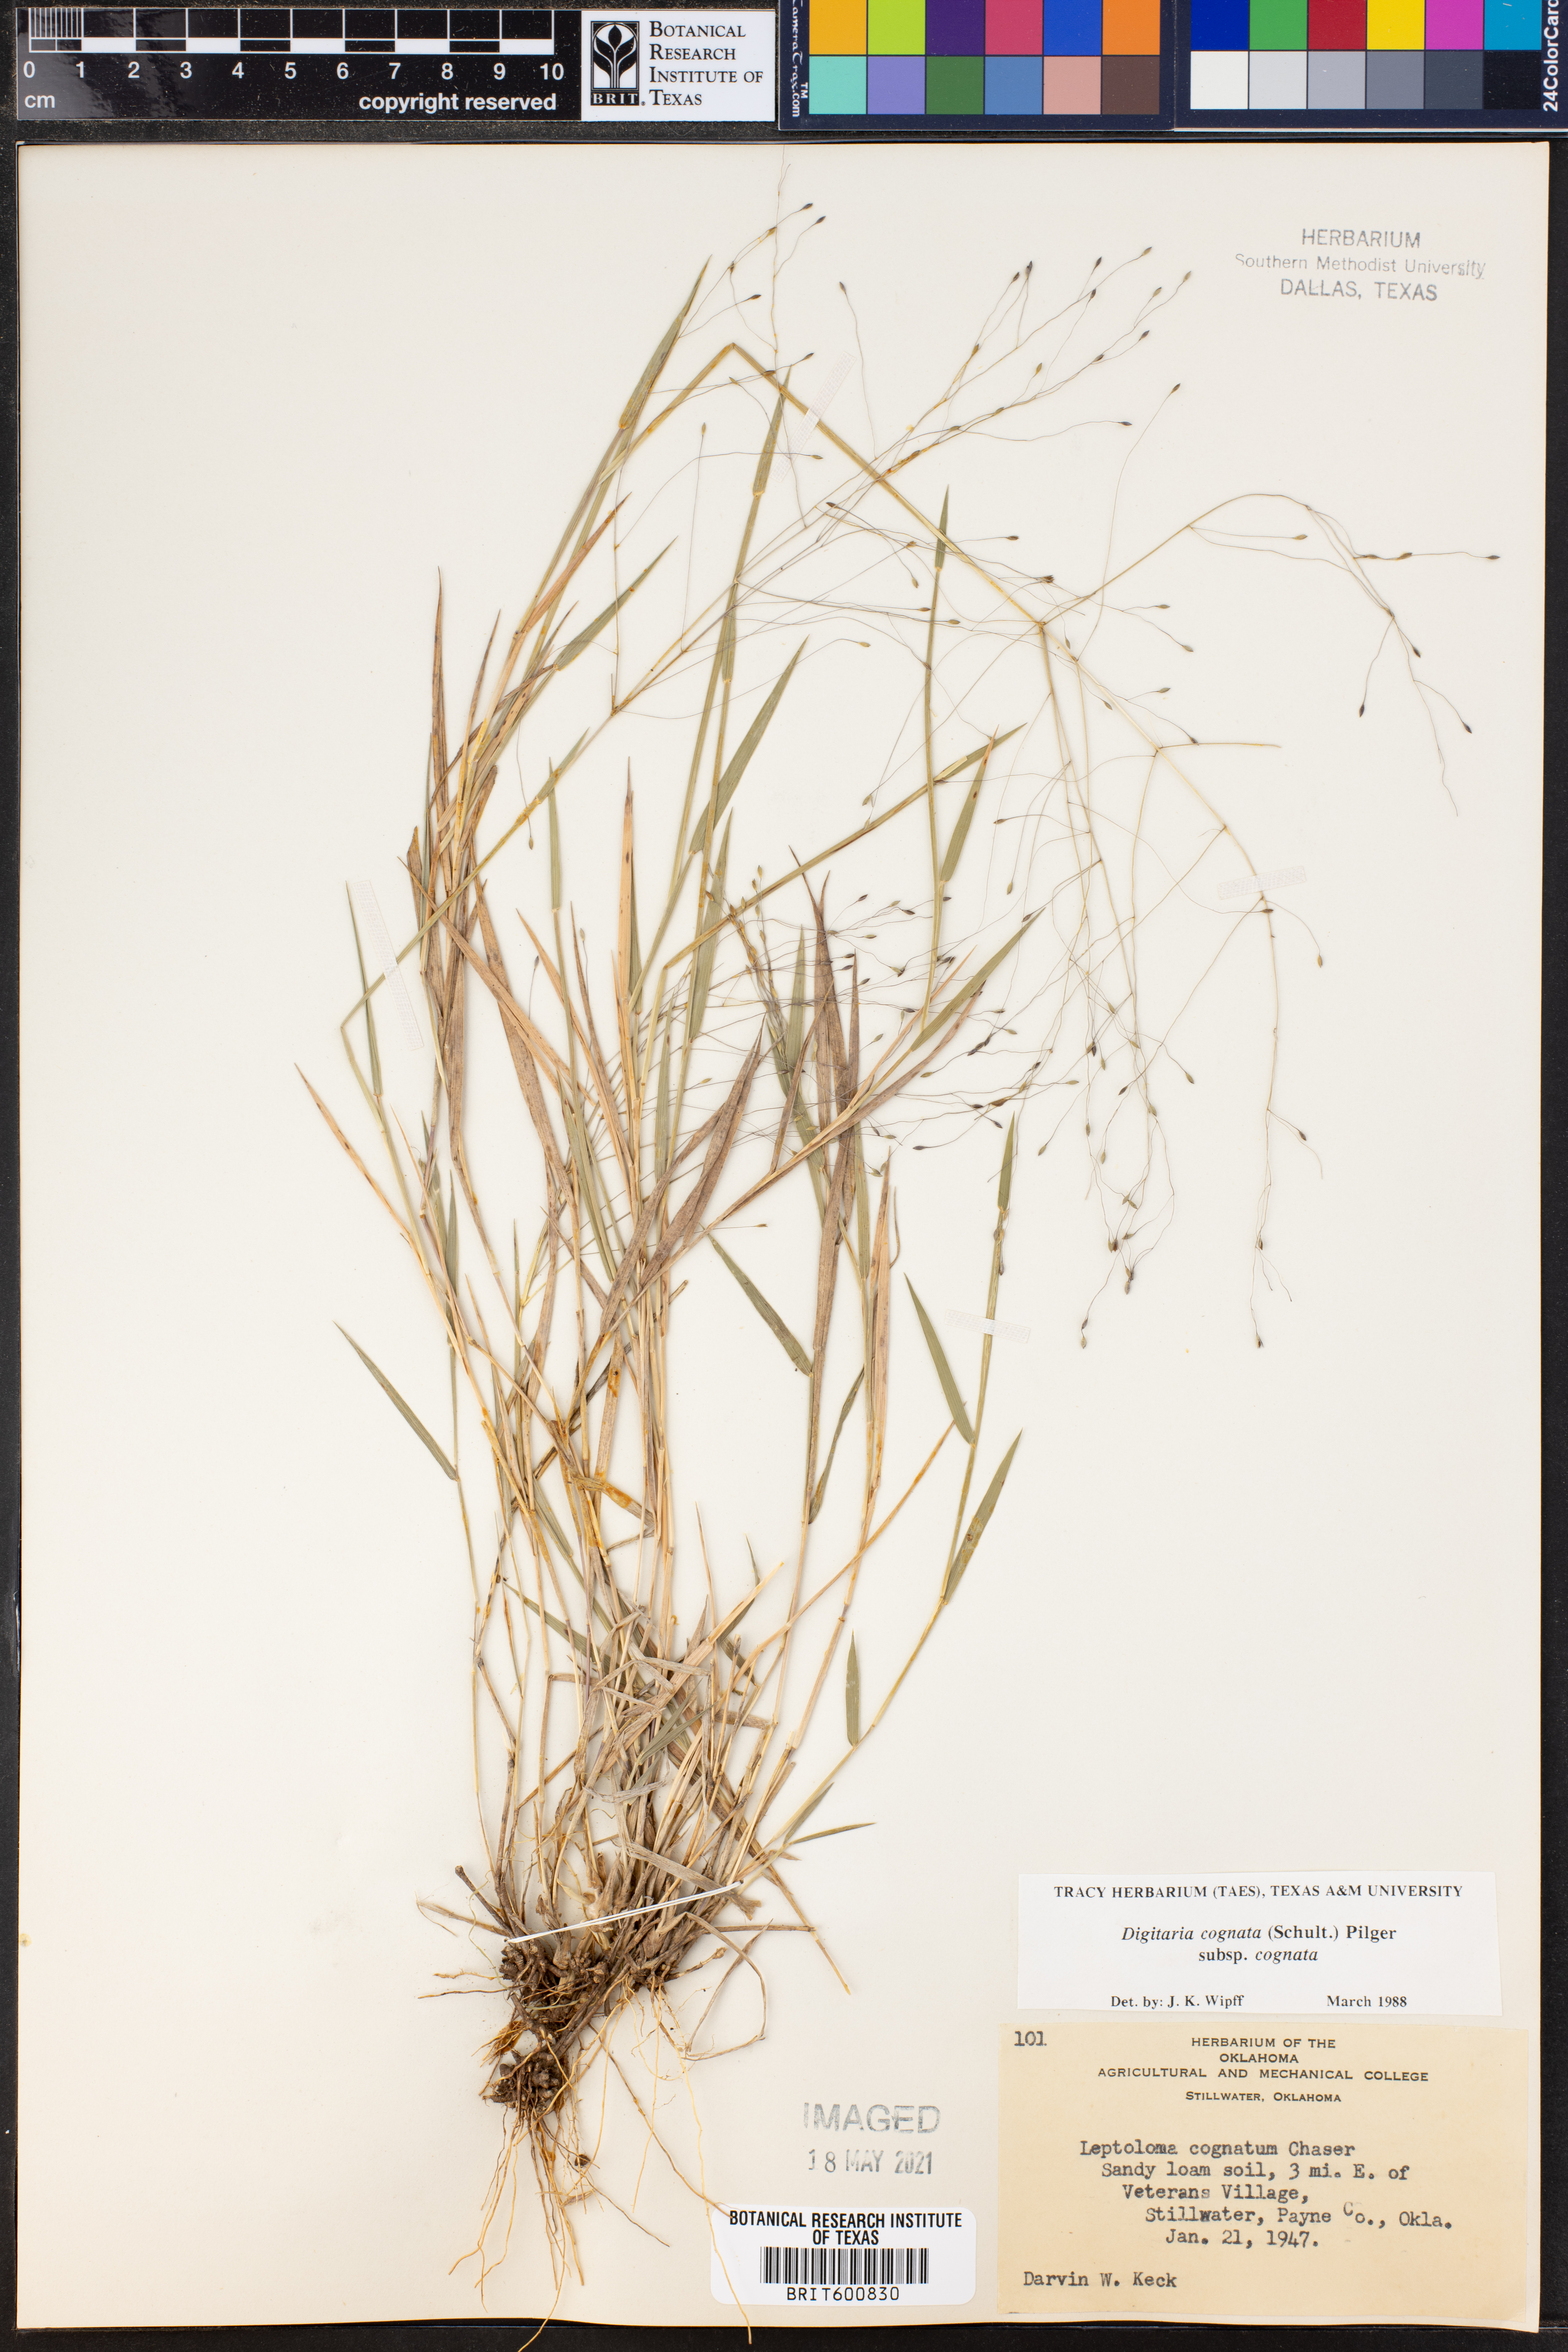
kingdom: Plantae
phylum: Tracheophyta
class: Liliopsida
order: Poales
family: Poaceae
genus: Digitaria
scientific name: Digitaria cognata
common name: Fall witchgrass
